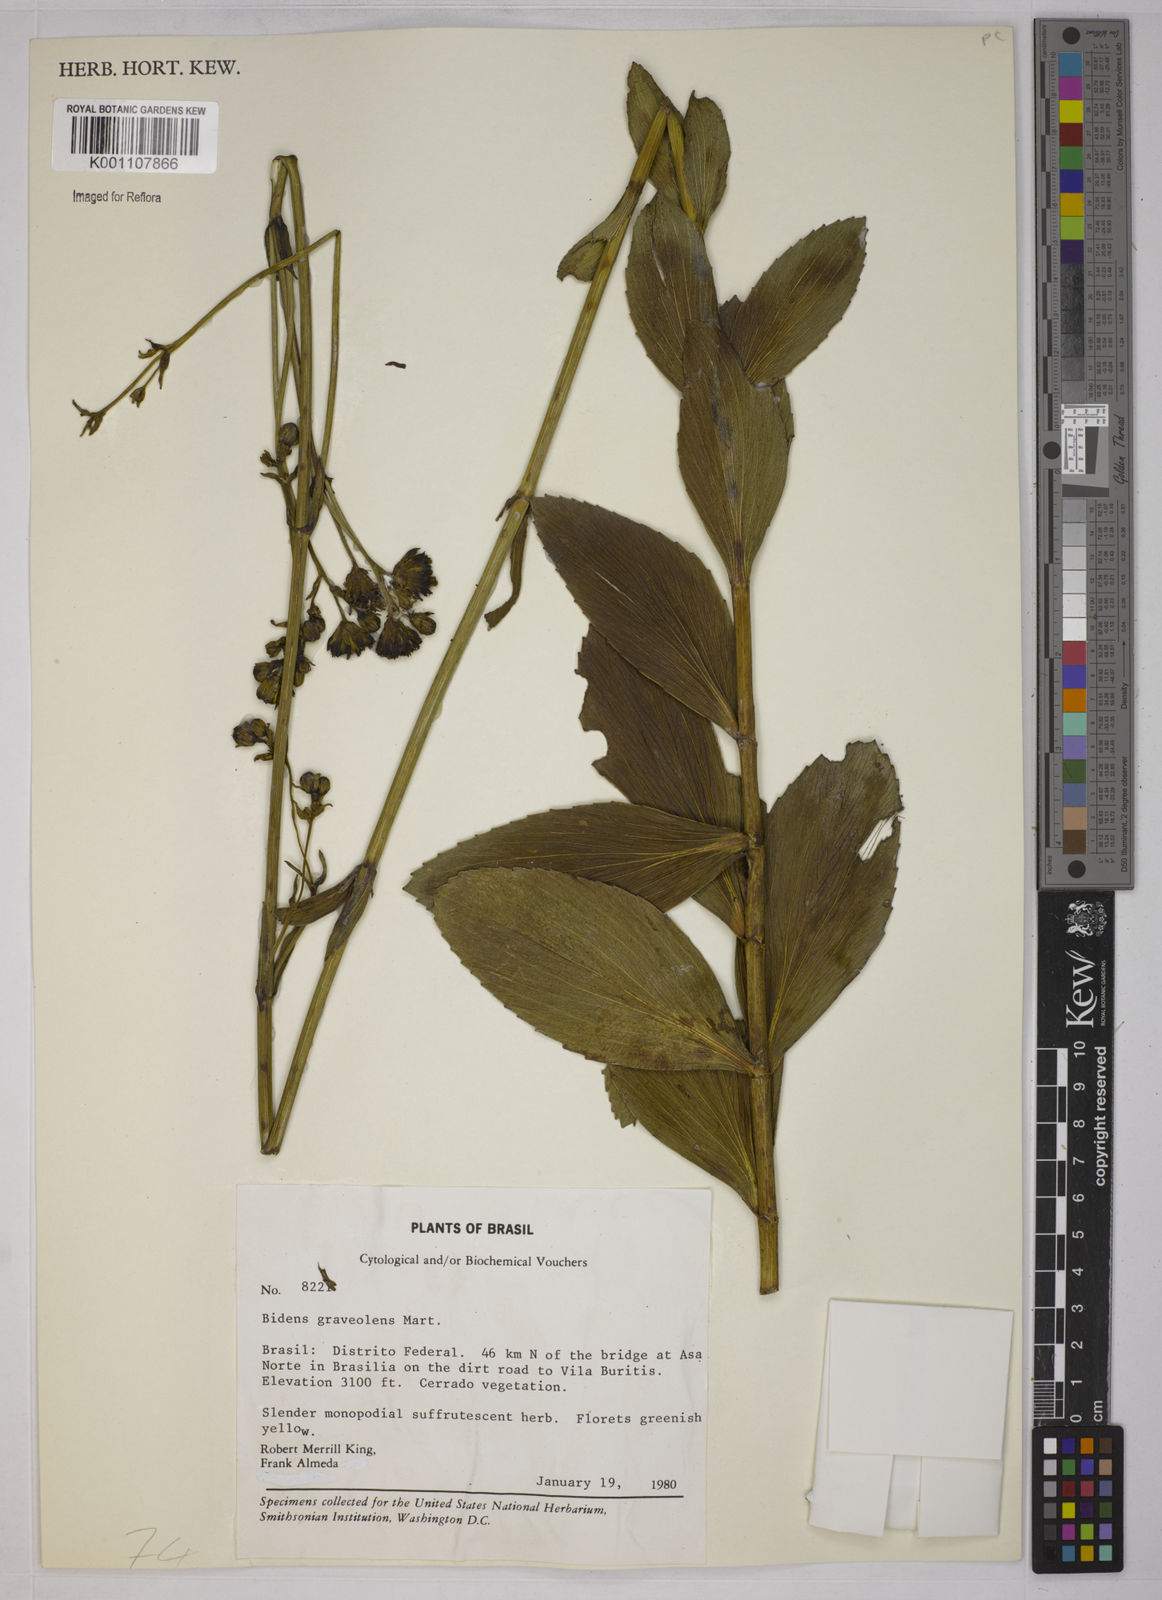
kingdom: Plantae
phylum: Tracheophyta
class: Magnoliopsida
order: Asterales
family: Asteraceae
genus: Bidens
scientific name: Bidens
